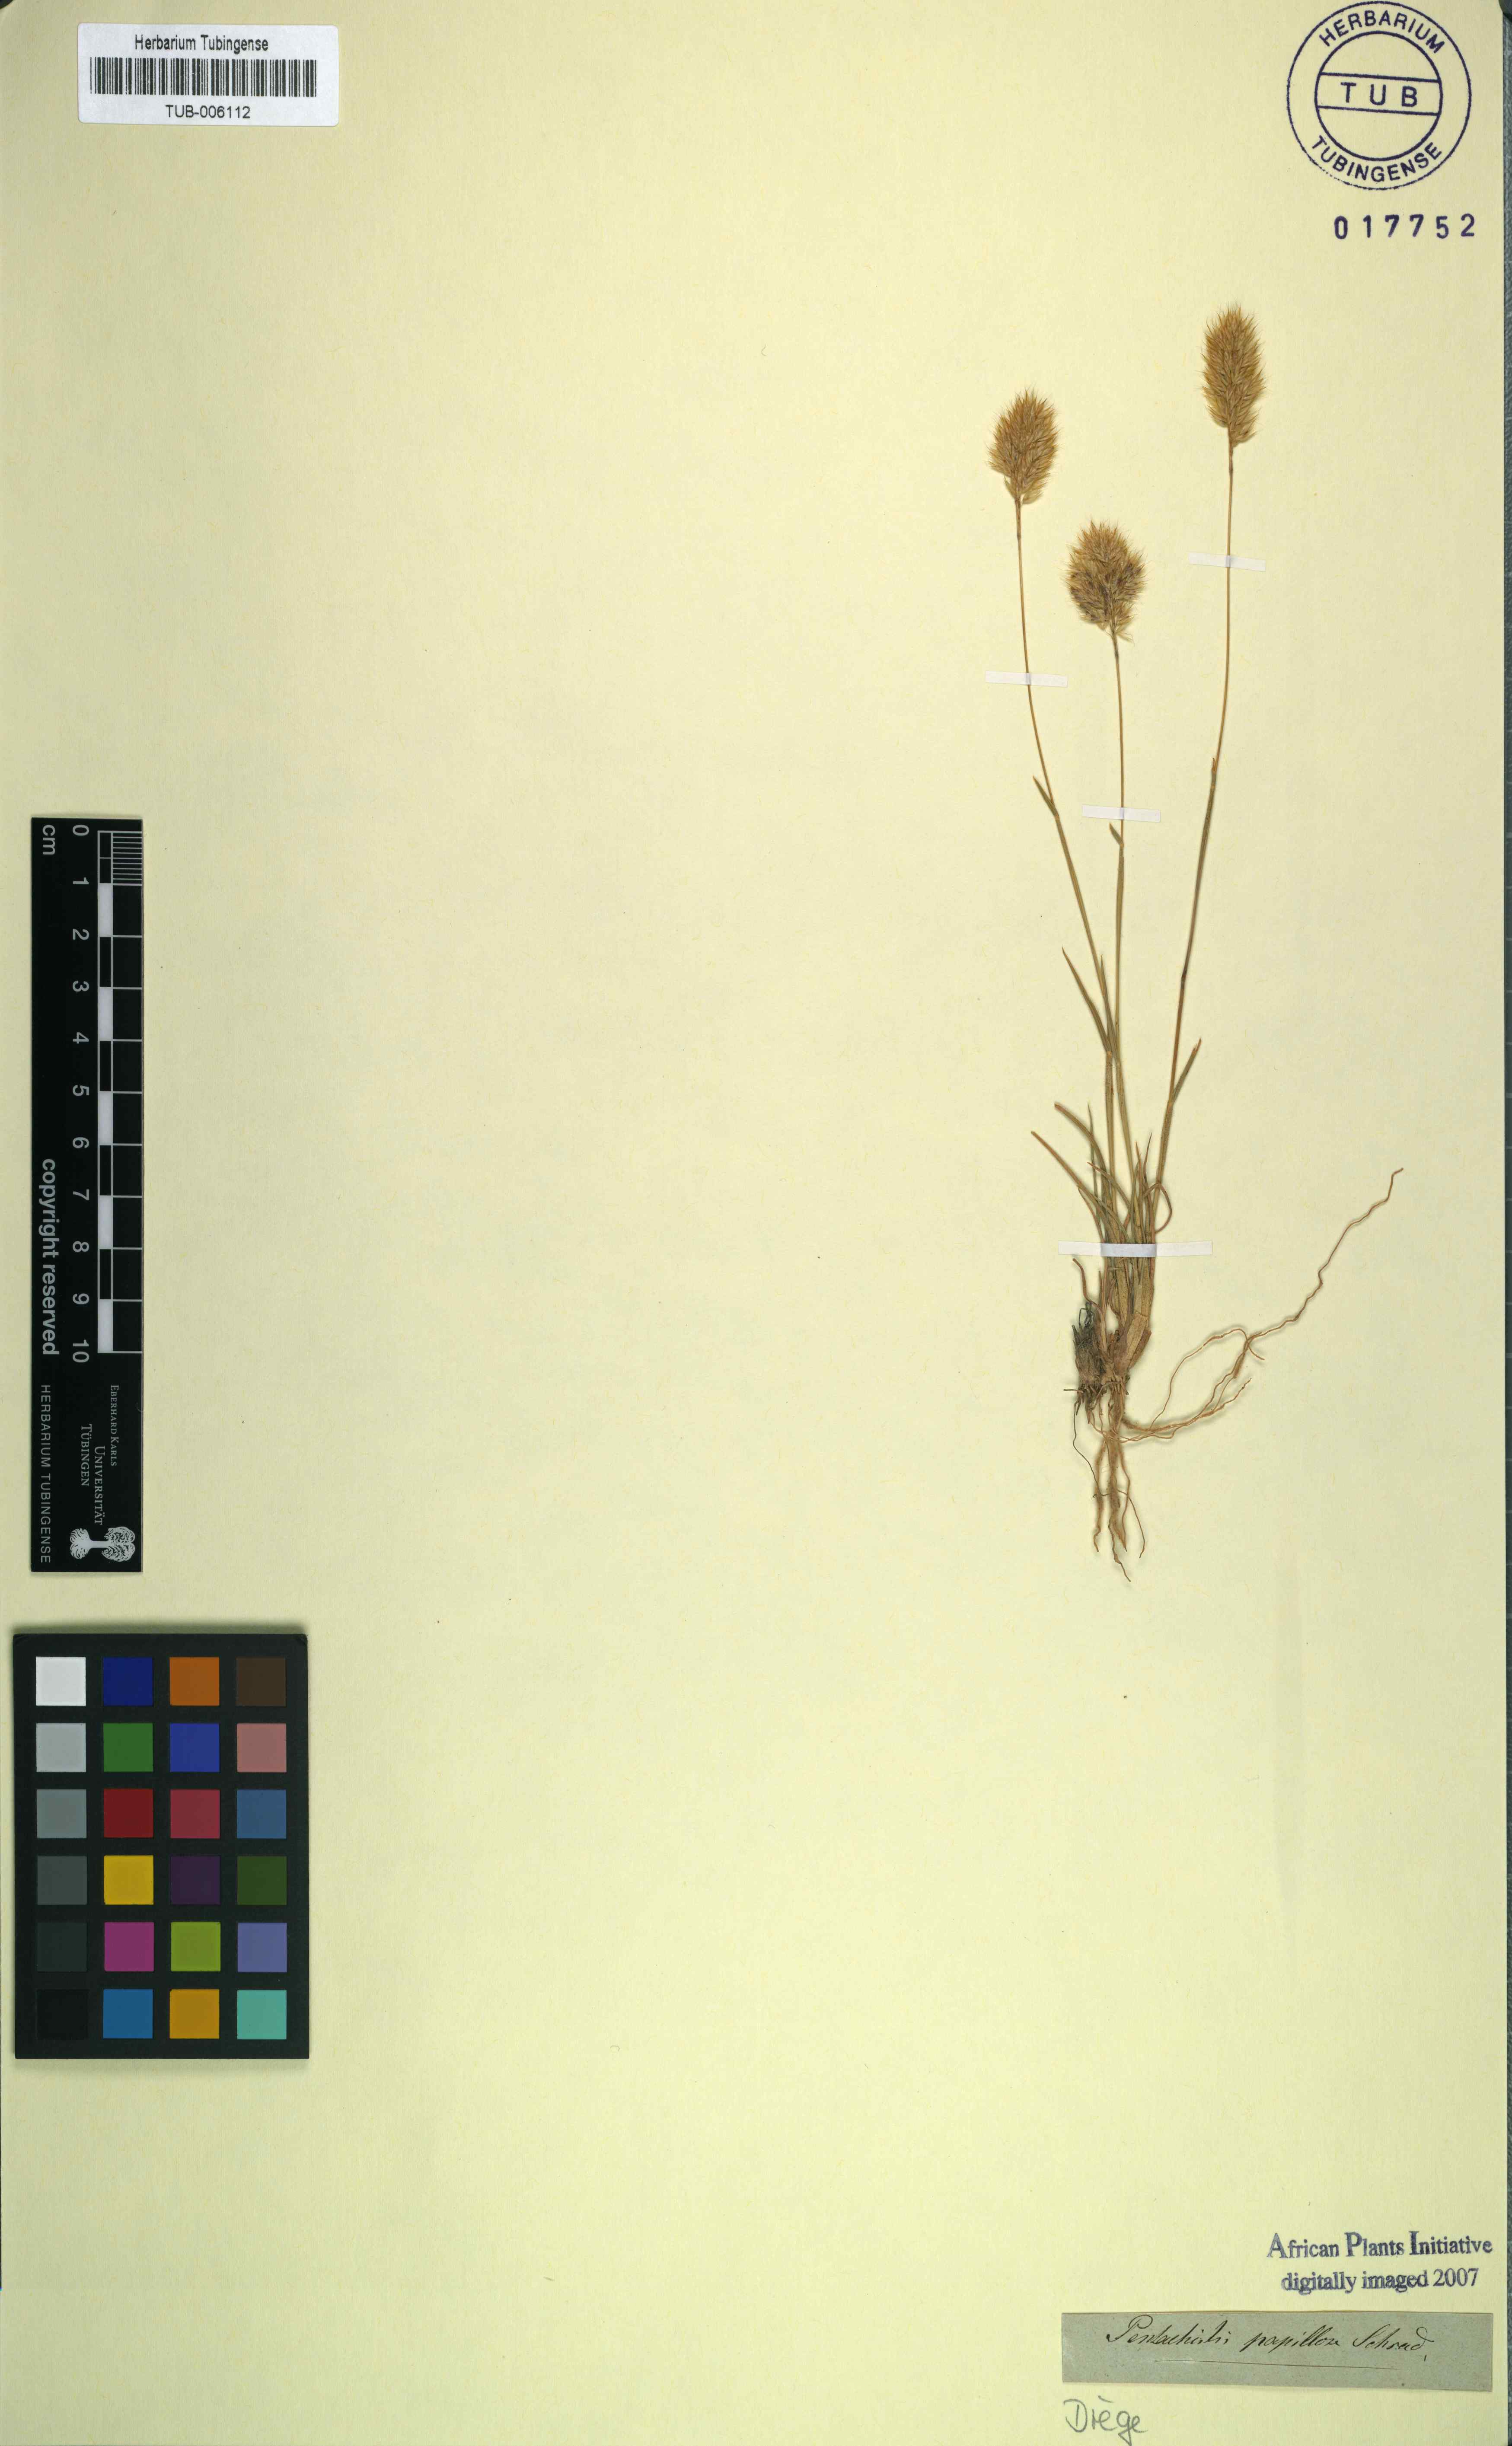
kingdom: Plantae
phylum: Tracheophyta
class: Liliopsida
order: Poales
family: Poaceae
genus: Pentameris
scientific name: Pentameris pallida
